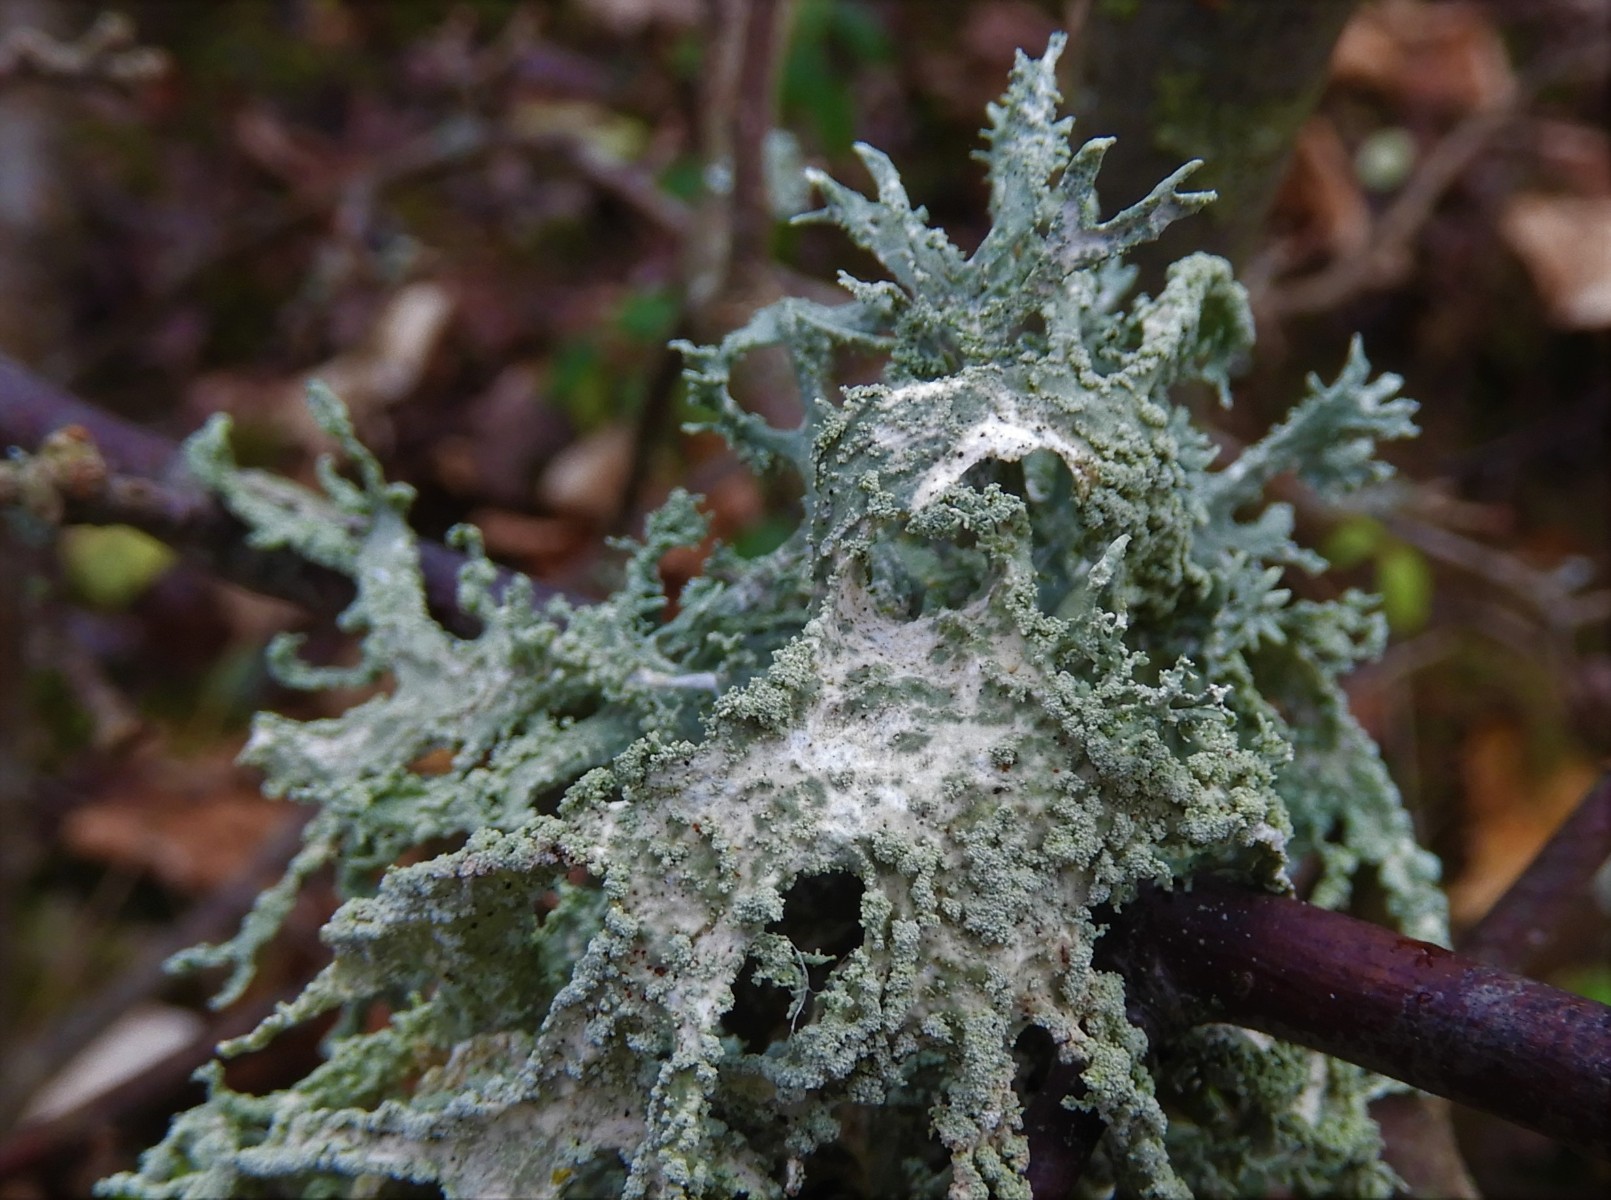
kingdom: Fungi
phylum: Ascomycota
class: Lecanoromycetes
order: Lecanorales
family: Parmeliaceae
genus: Evernia
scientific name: Evernia prunastri
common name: almindelig slåenlav
